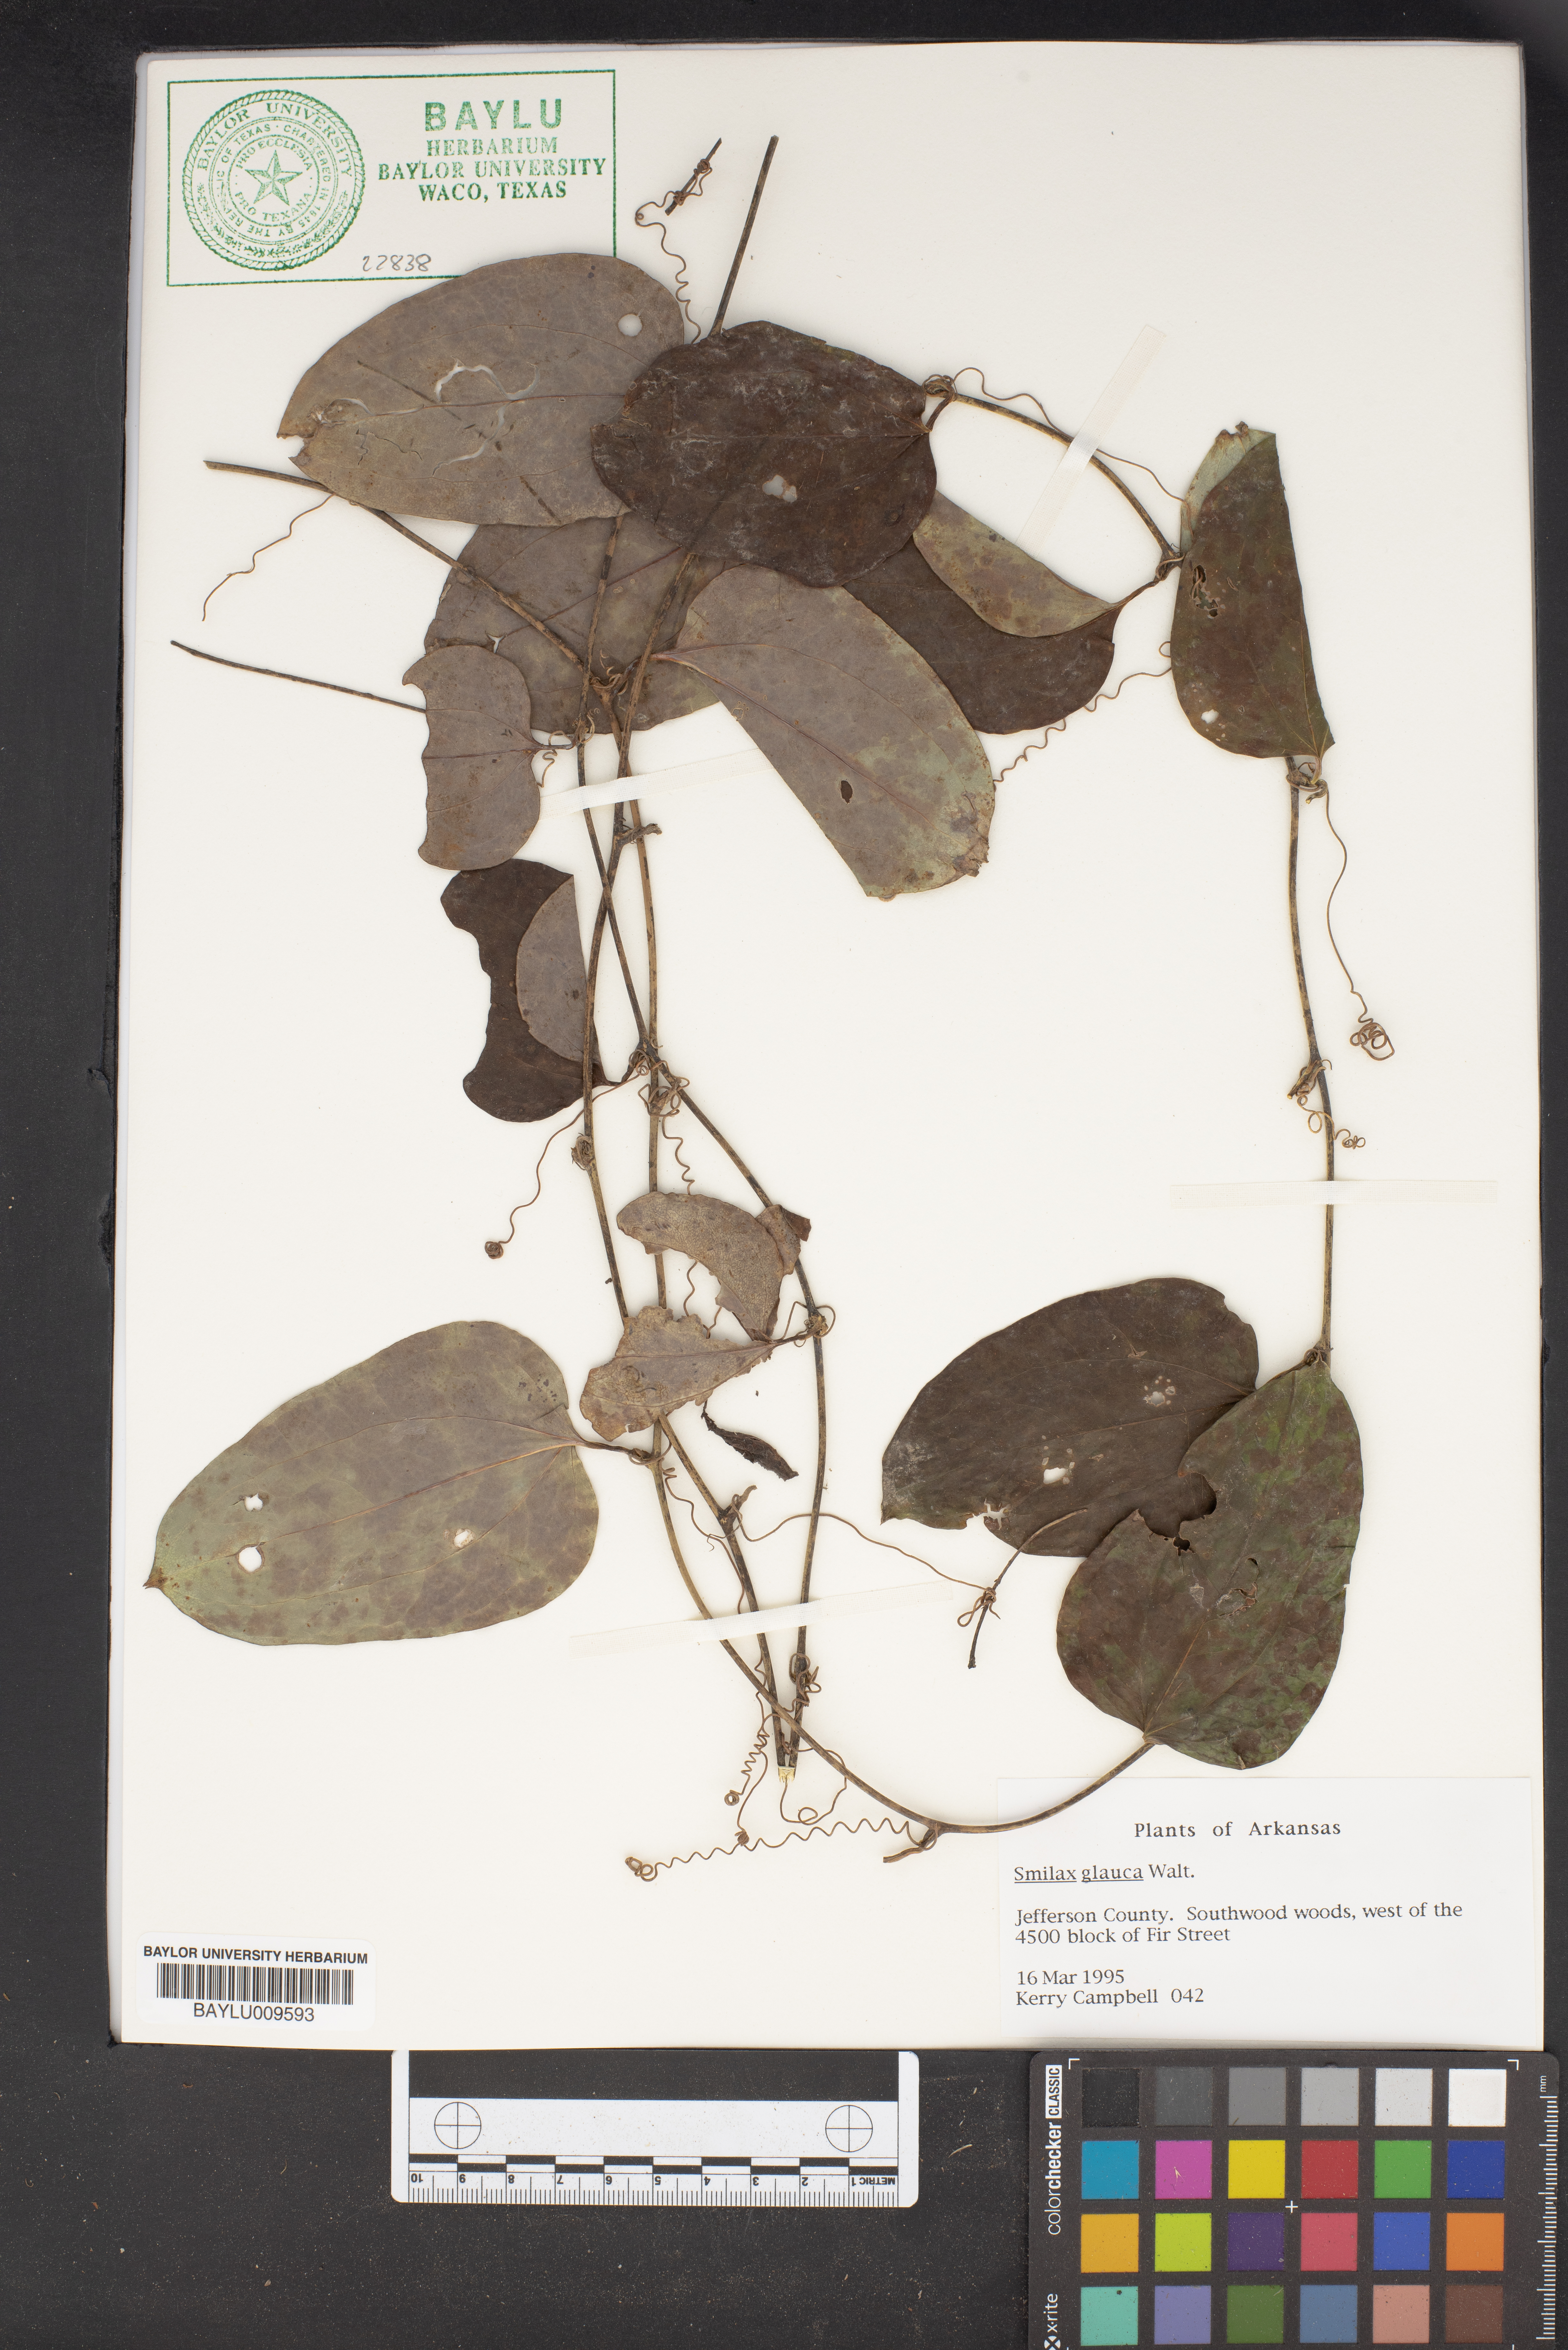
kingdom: Plantae
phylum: Tracheophyta
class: Liliopsida
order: Liliales
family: Smilacaceae
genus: Smilax
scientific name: Smilax glauca
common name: Cat greenbrier
